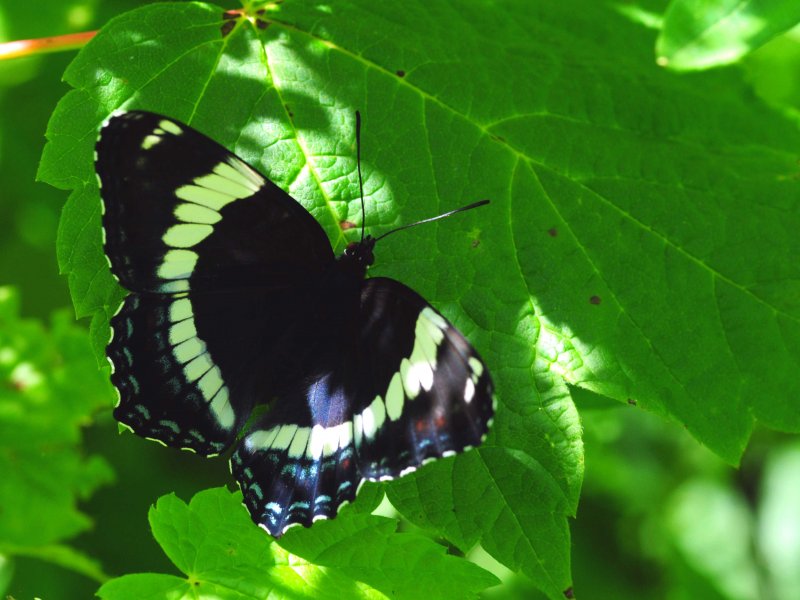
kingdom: Animalia
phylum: Arthropoda
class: Insecta
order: Lepidoptera
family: Nymphalidae
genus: Limenitis
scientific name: Limenitis arthemis
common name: Red-spotted Admiral
